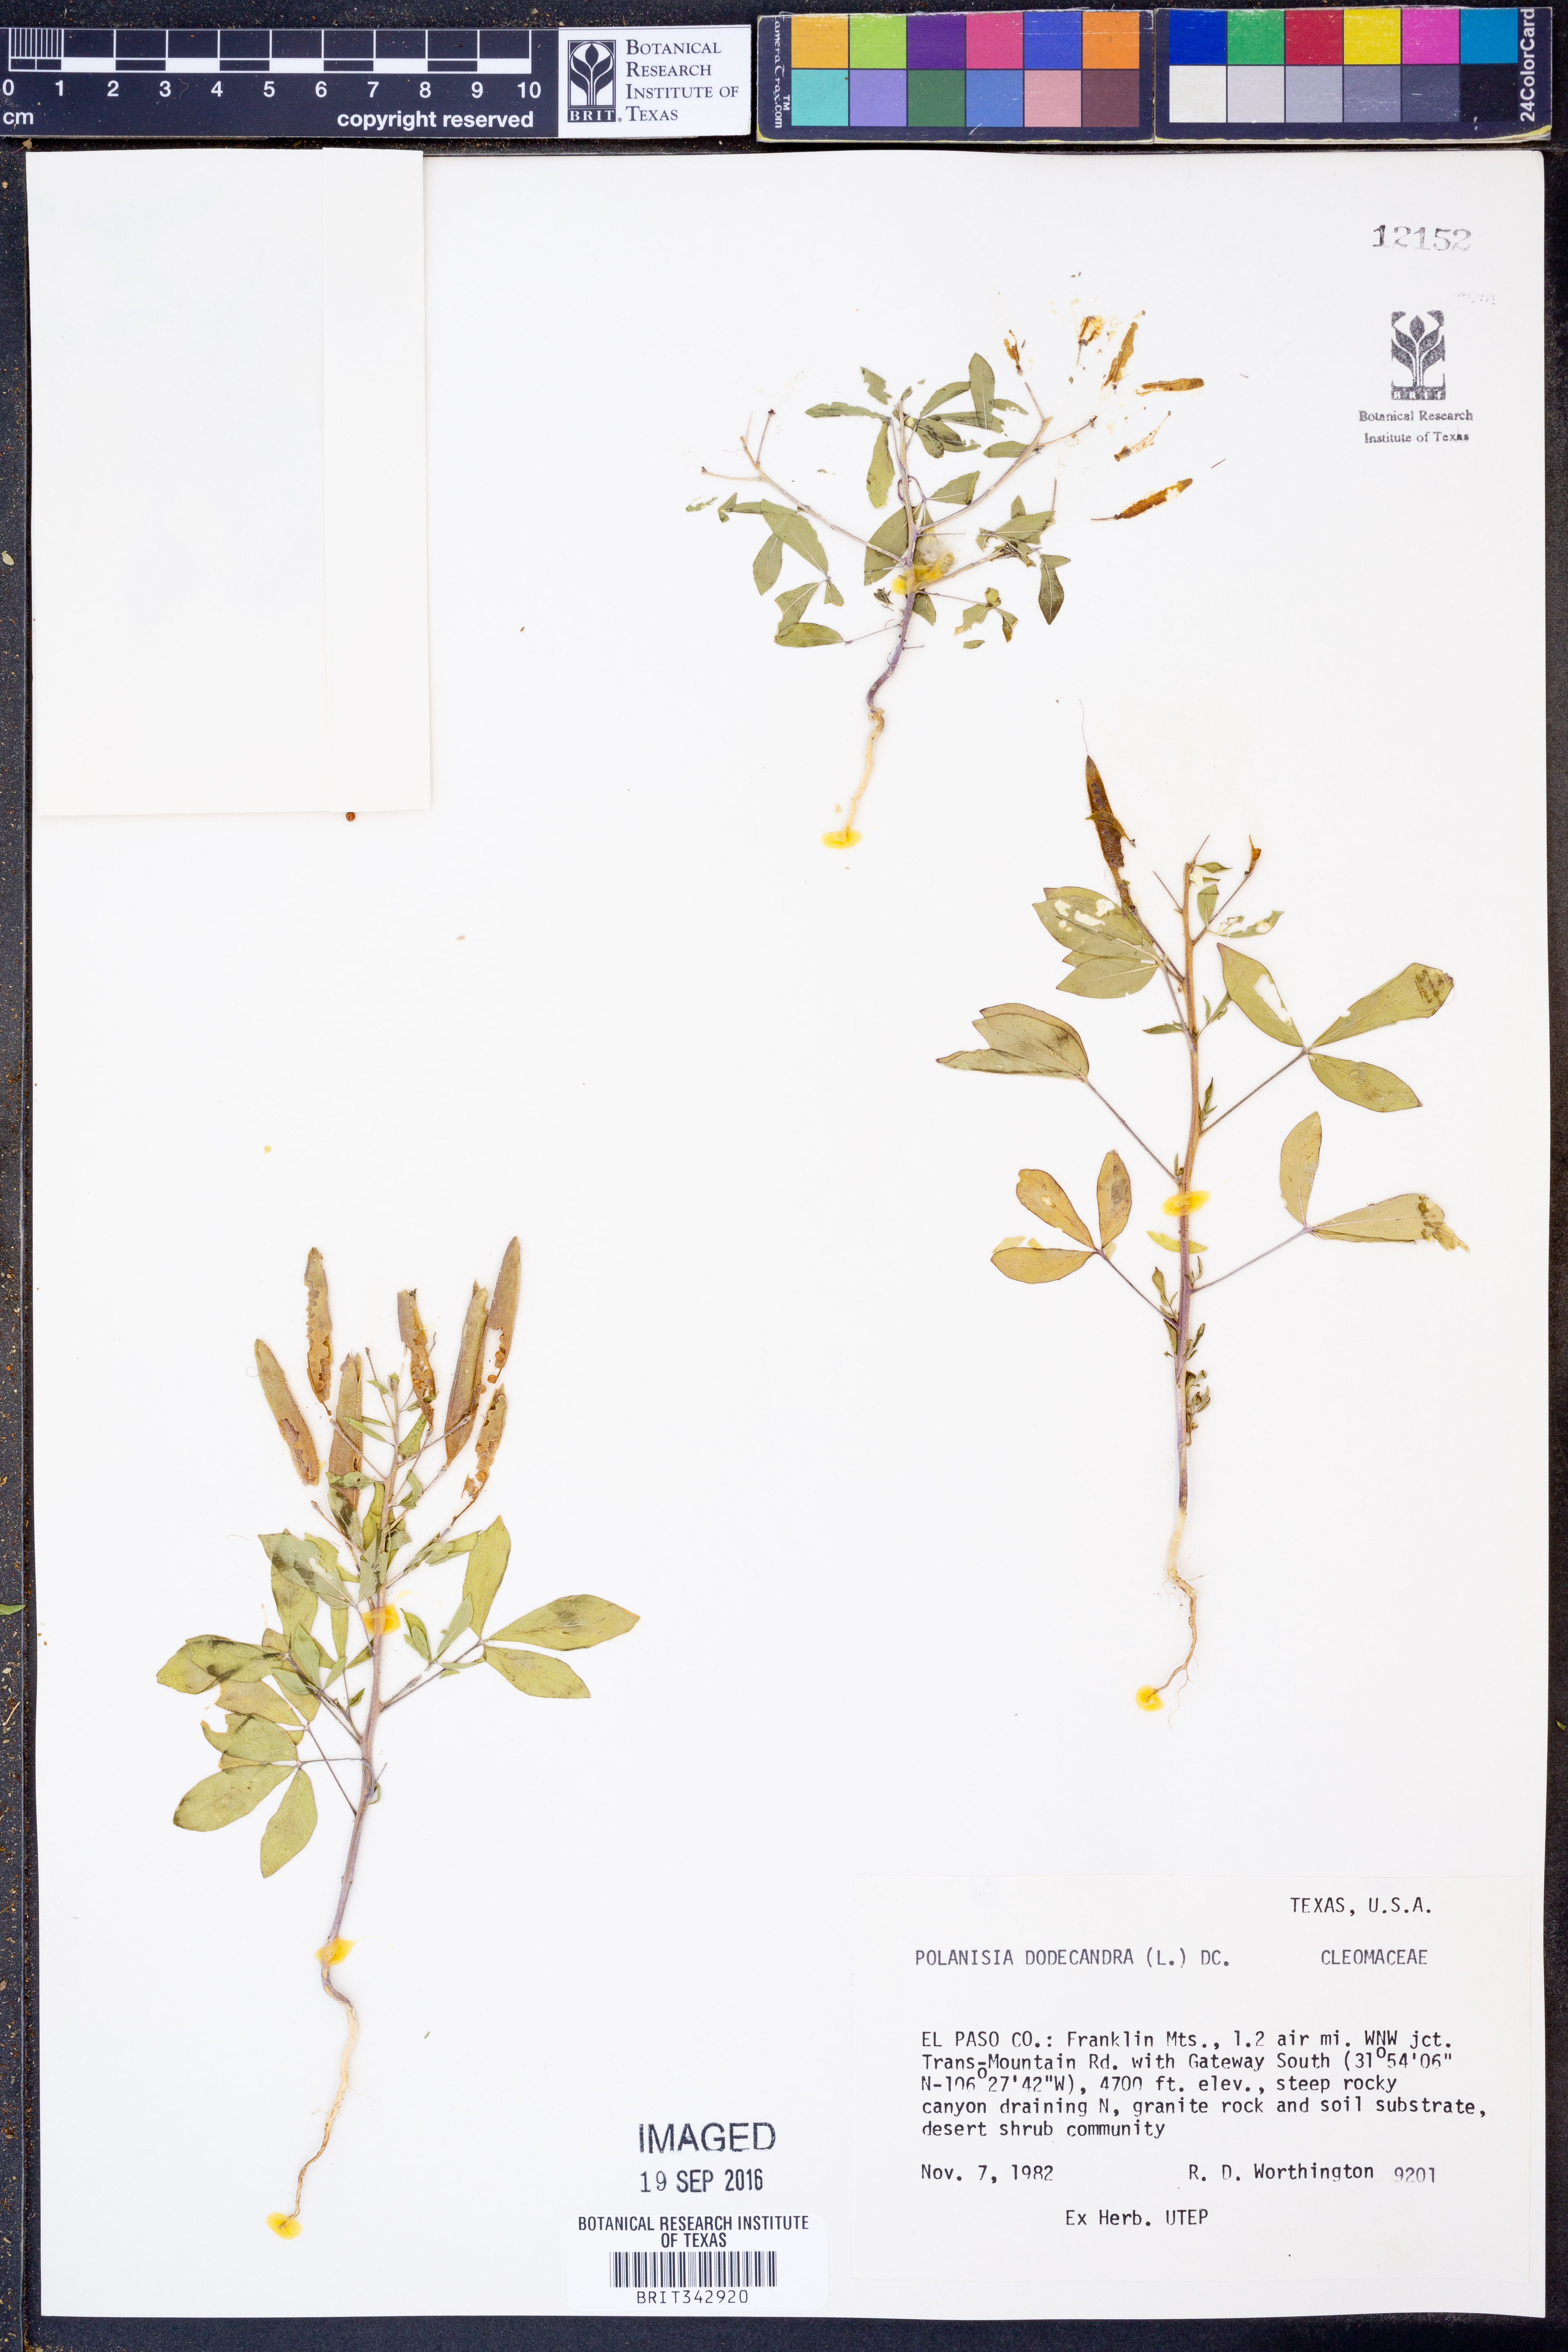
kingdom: Plantae
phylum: Tracheophyta
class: Magnoliopsida
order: Brassicales
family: Cleomaceae
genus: Polanisia
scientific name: Polanisia dodecandra
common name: Clammyweed
